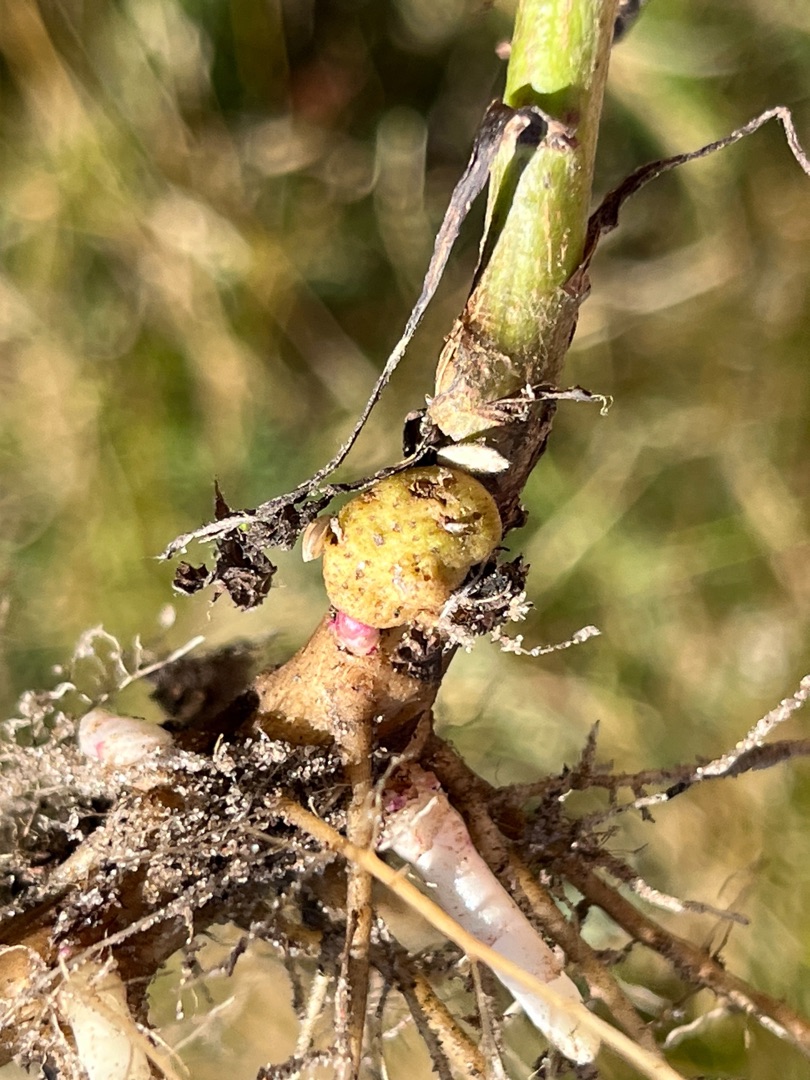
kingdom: Animalia
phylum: Arthropoda
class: Insecta
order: Diptera
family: Cecidomyiidae
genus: Rhopalomyia
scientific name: Rhopalomyia baccarum
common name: Bynkerodhalsgalmyg
